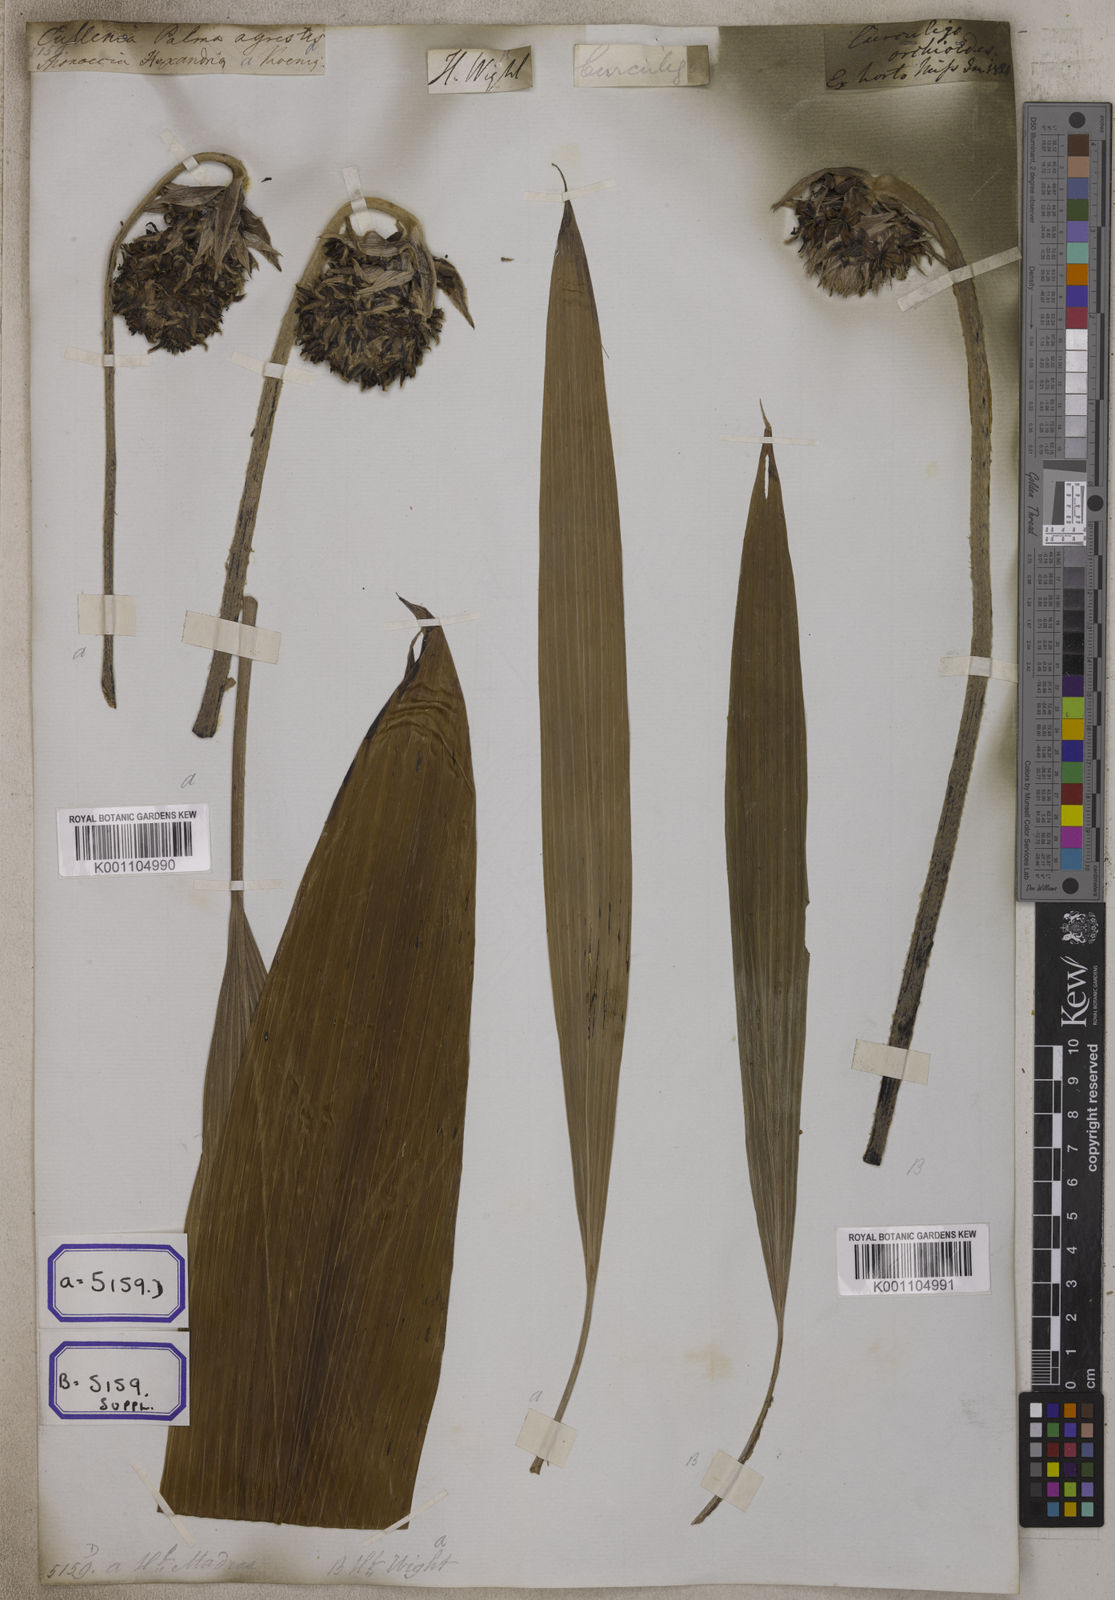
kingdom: Plantae
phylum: Tracheophyta
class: Liliopsida
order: Asparagales
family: Hypoxidaceae
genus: Curculigo
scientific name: Curculigo capitulata
